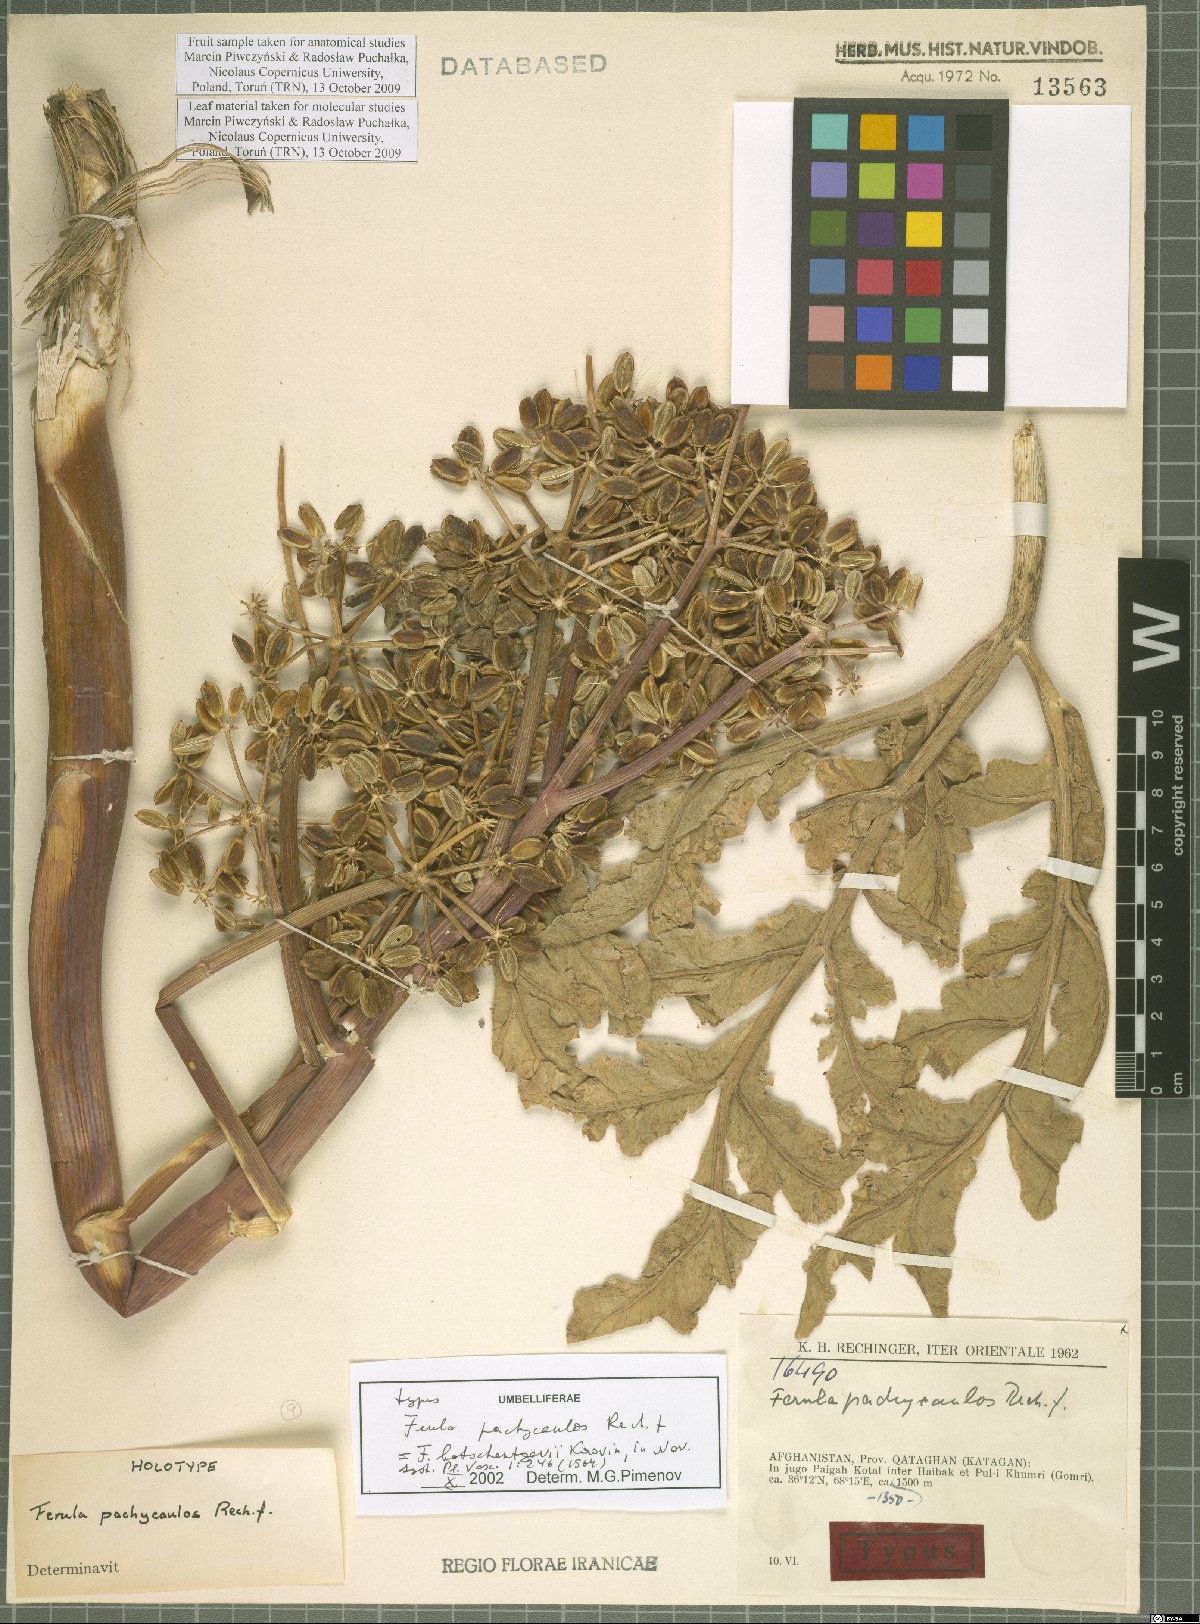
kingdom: Plantae
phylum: Tracheophyta
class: Magnoliopsida
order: Apiales
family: Apiaceae
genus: Ferula
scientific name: Ferula botschantzevii
